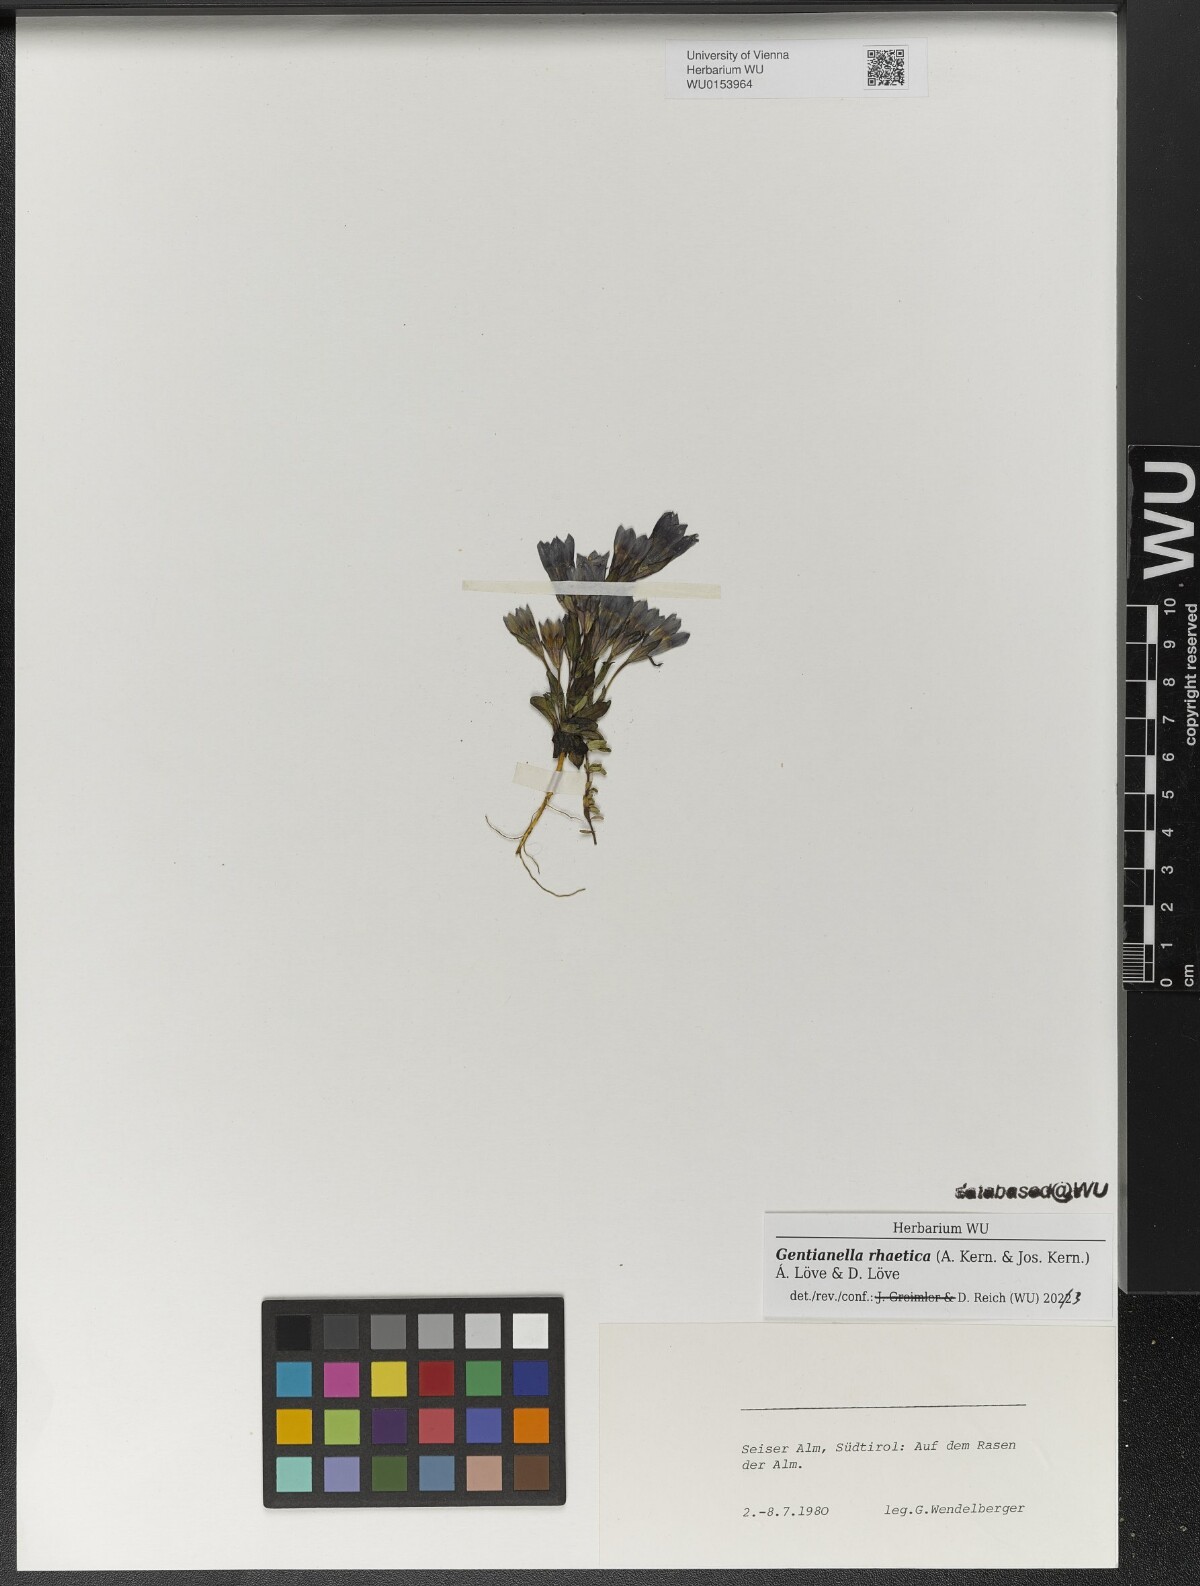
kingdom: Plantae
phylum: Tracheophyta
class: Magnoliopsida
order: Gentianales
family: Gentianaceae
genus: Gentianella
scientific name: Gentianella rhaetica
